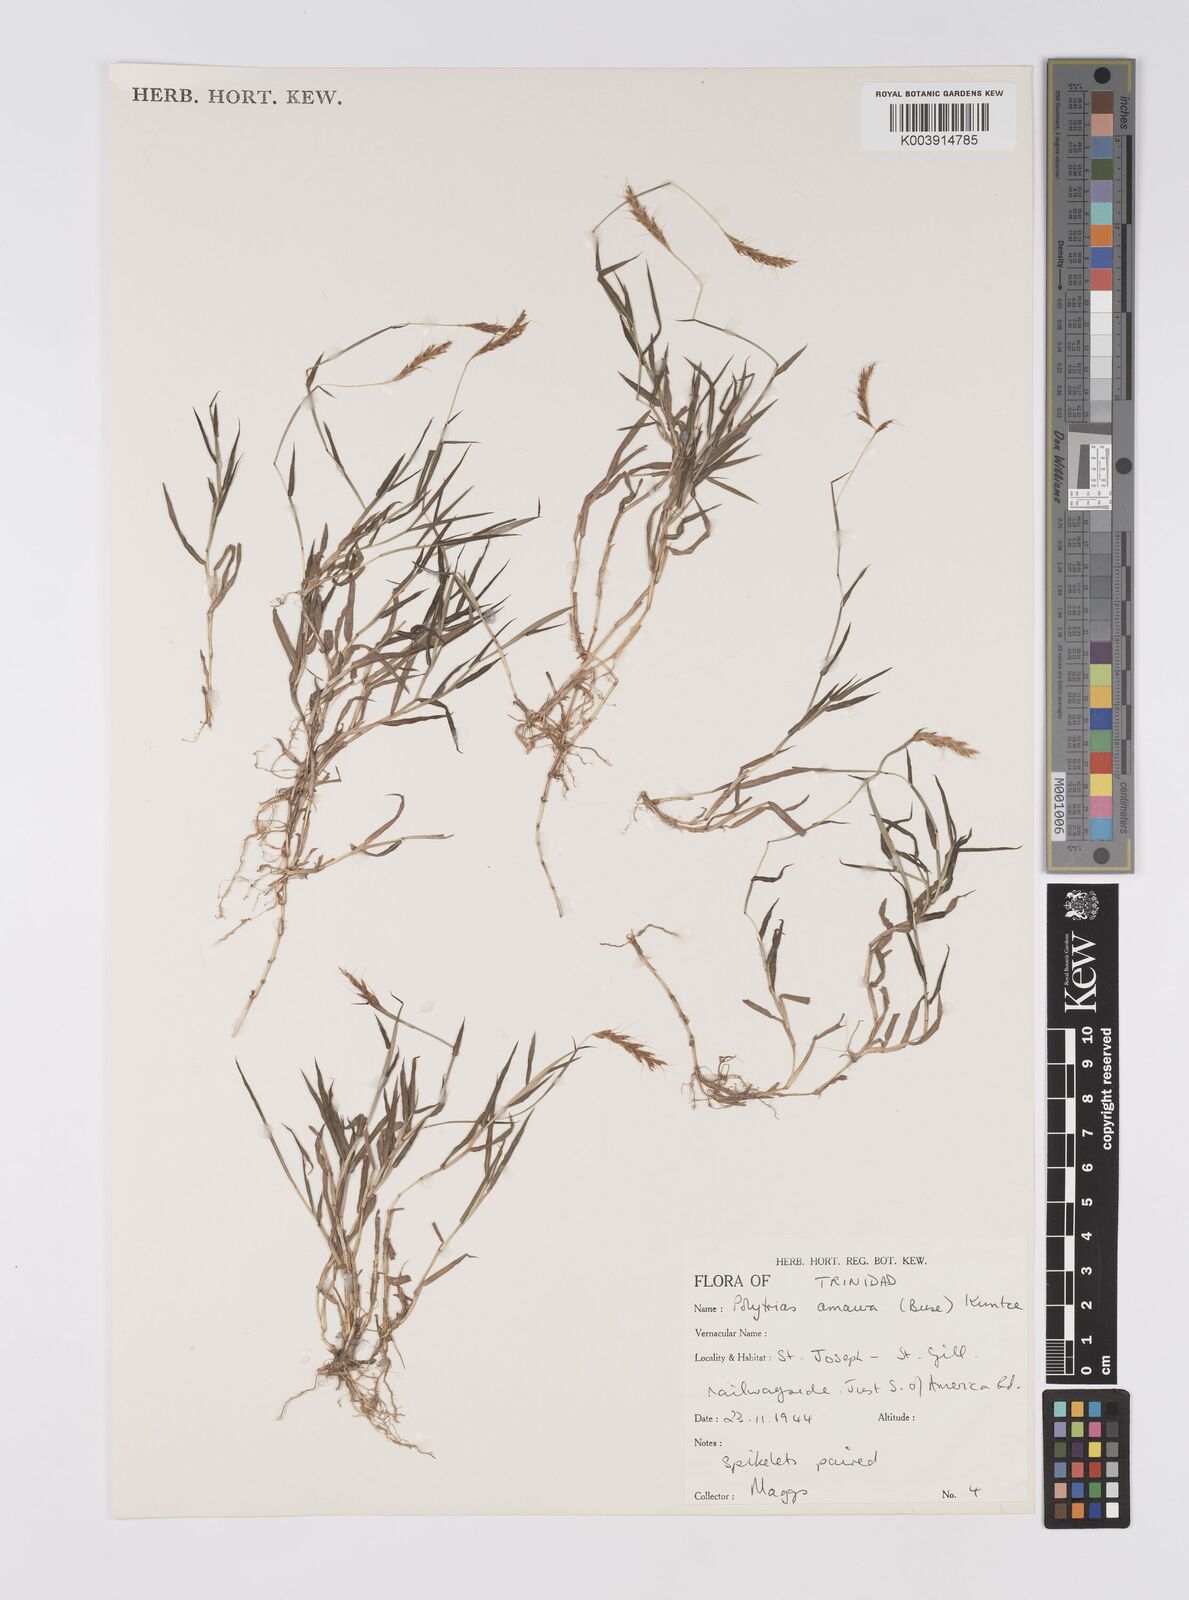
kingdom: Plantae
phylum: Tracheophyta
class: Liliopsida
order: Poales
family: Poaceae
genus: Polytrias
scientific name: Polytrias indica
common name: Indian murainagrass
